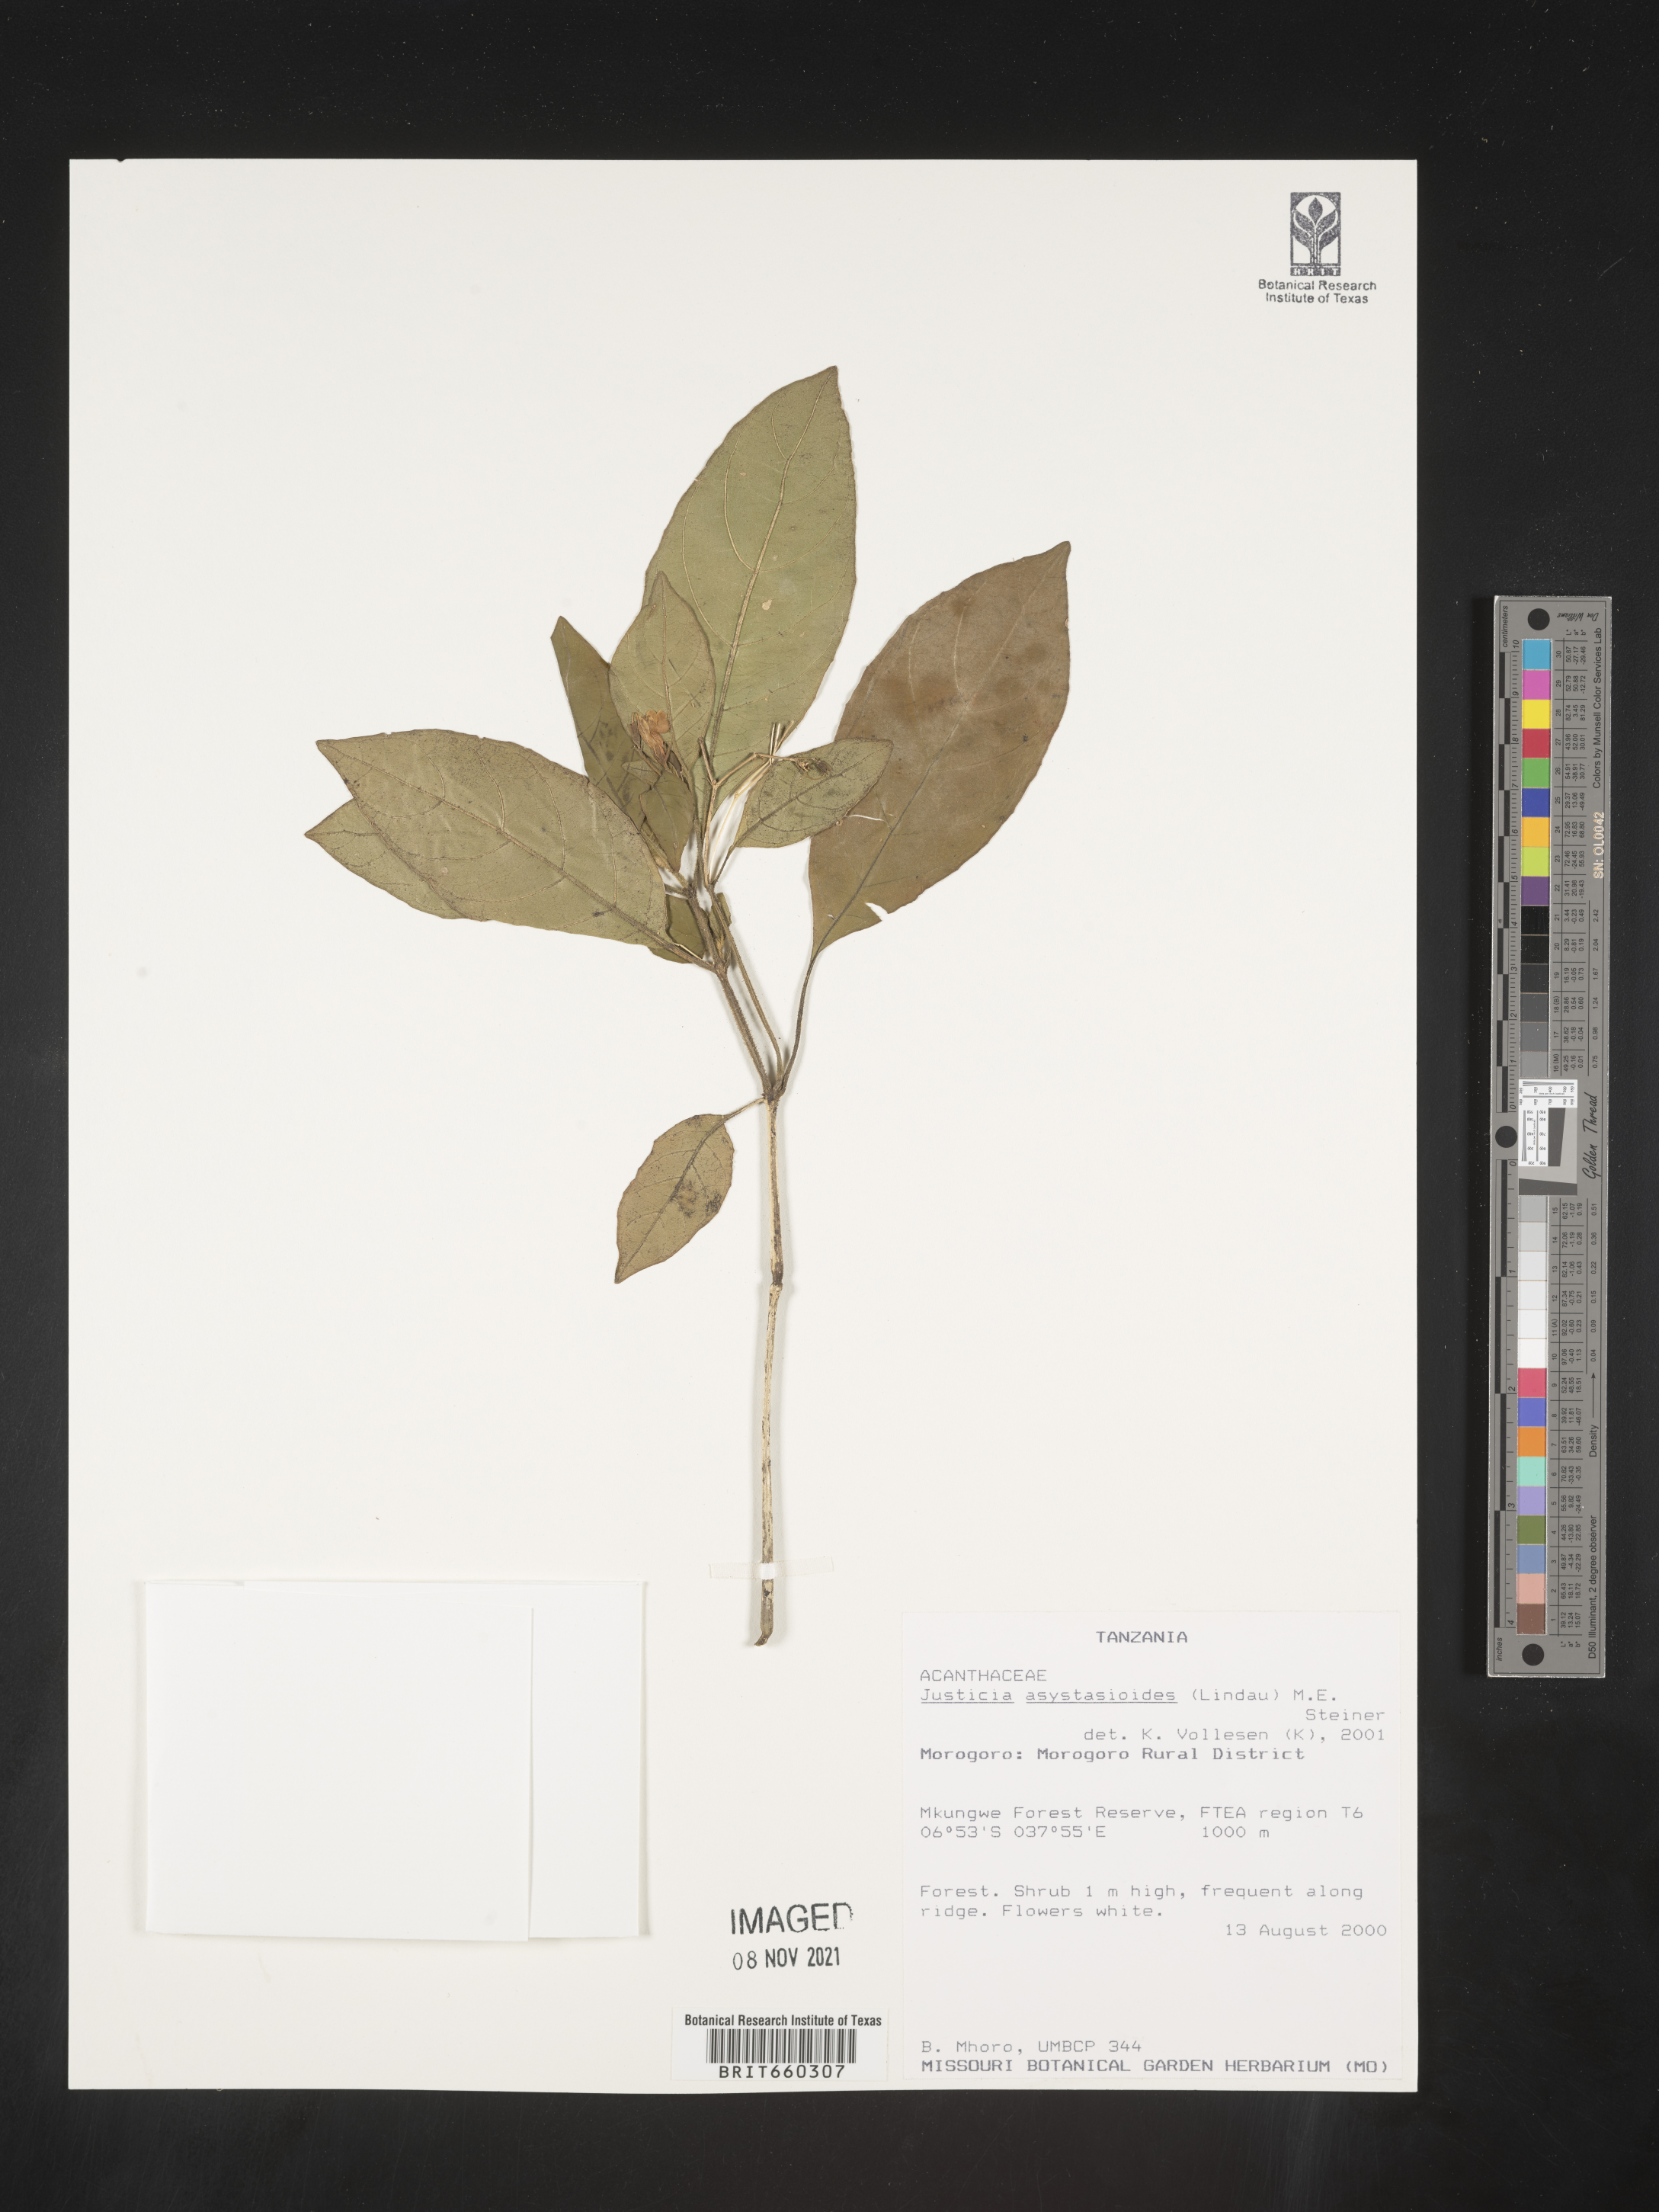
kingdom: Plantae
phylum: Tracheophyta
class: Magnoliopsida
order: Lamiales
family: Acanthaceae
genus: Justicia
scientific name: Justicia
